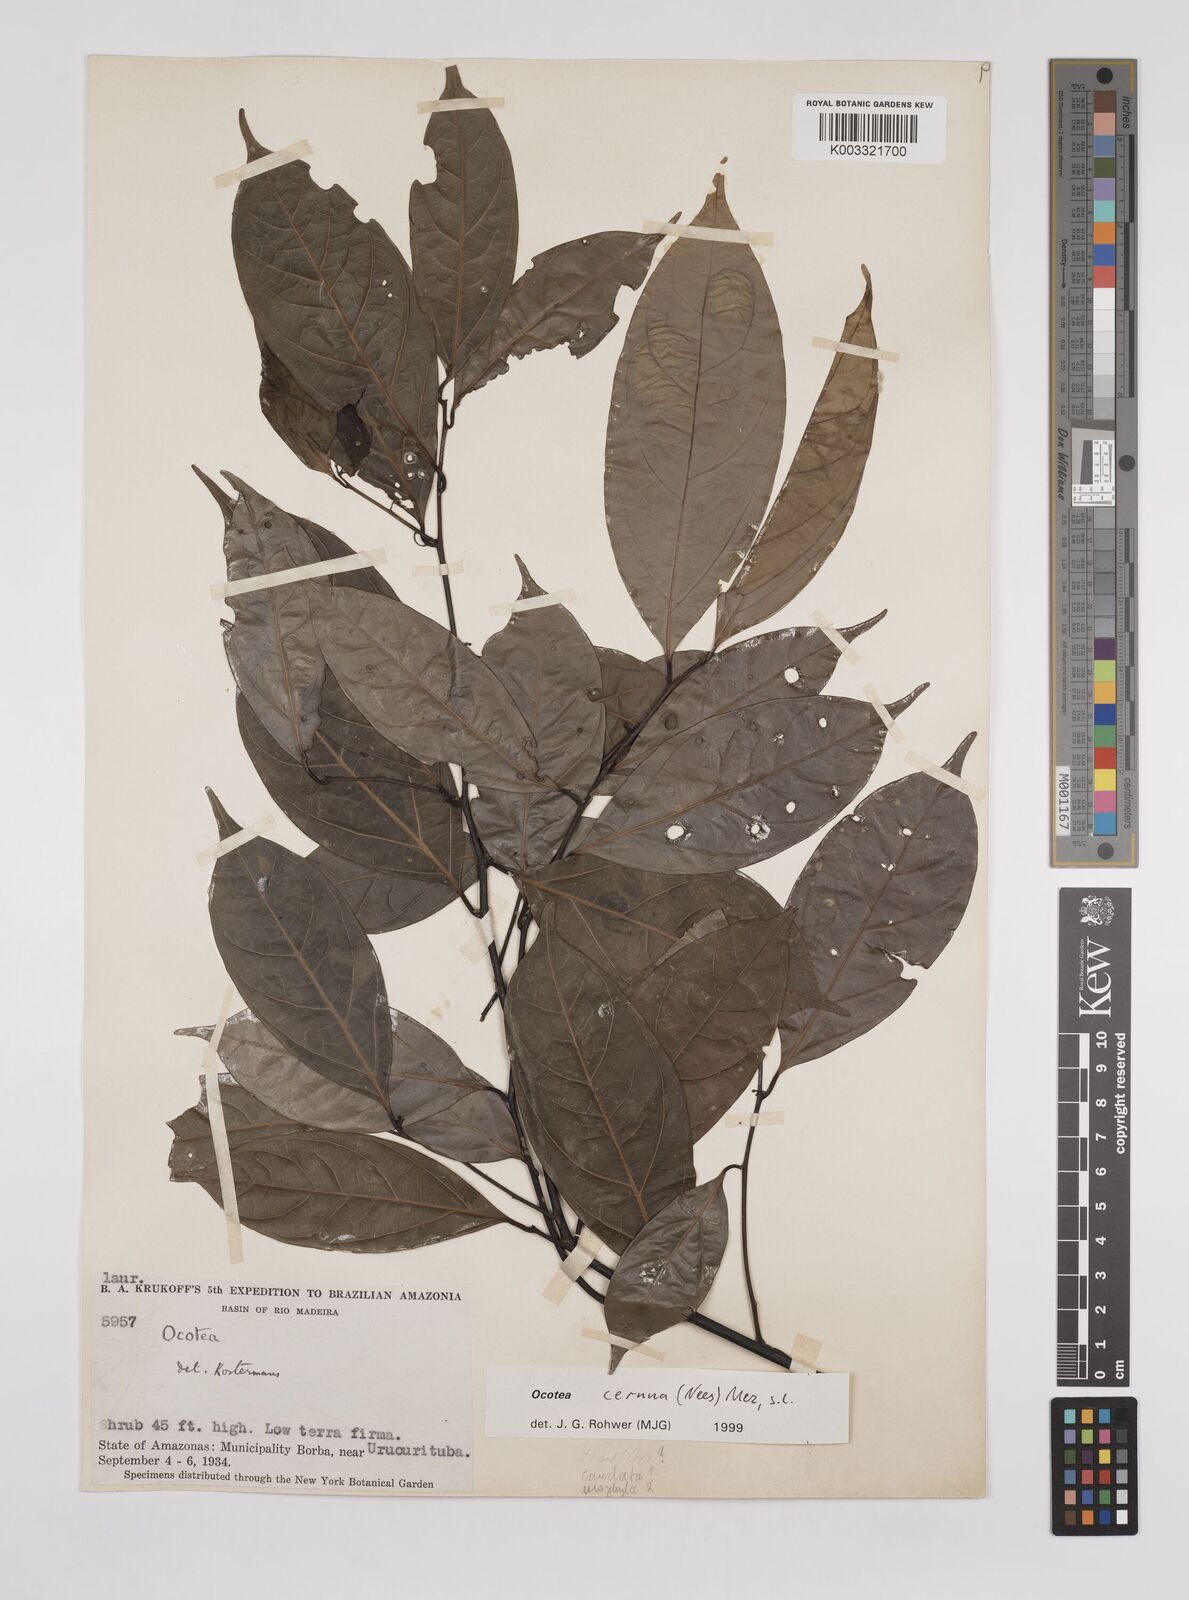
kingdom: Plantae
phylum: Tracheophyta
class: Magnoliopsida
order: Laurales
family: Lauraceae
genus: Ocotea
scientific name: Ocotea leptobotra
